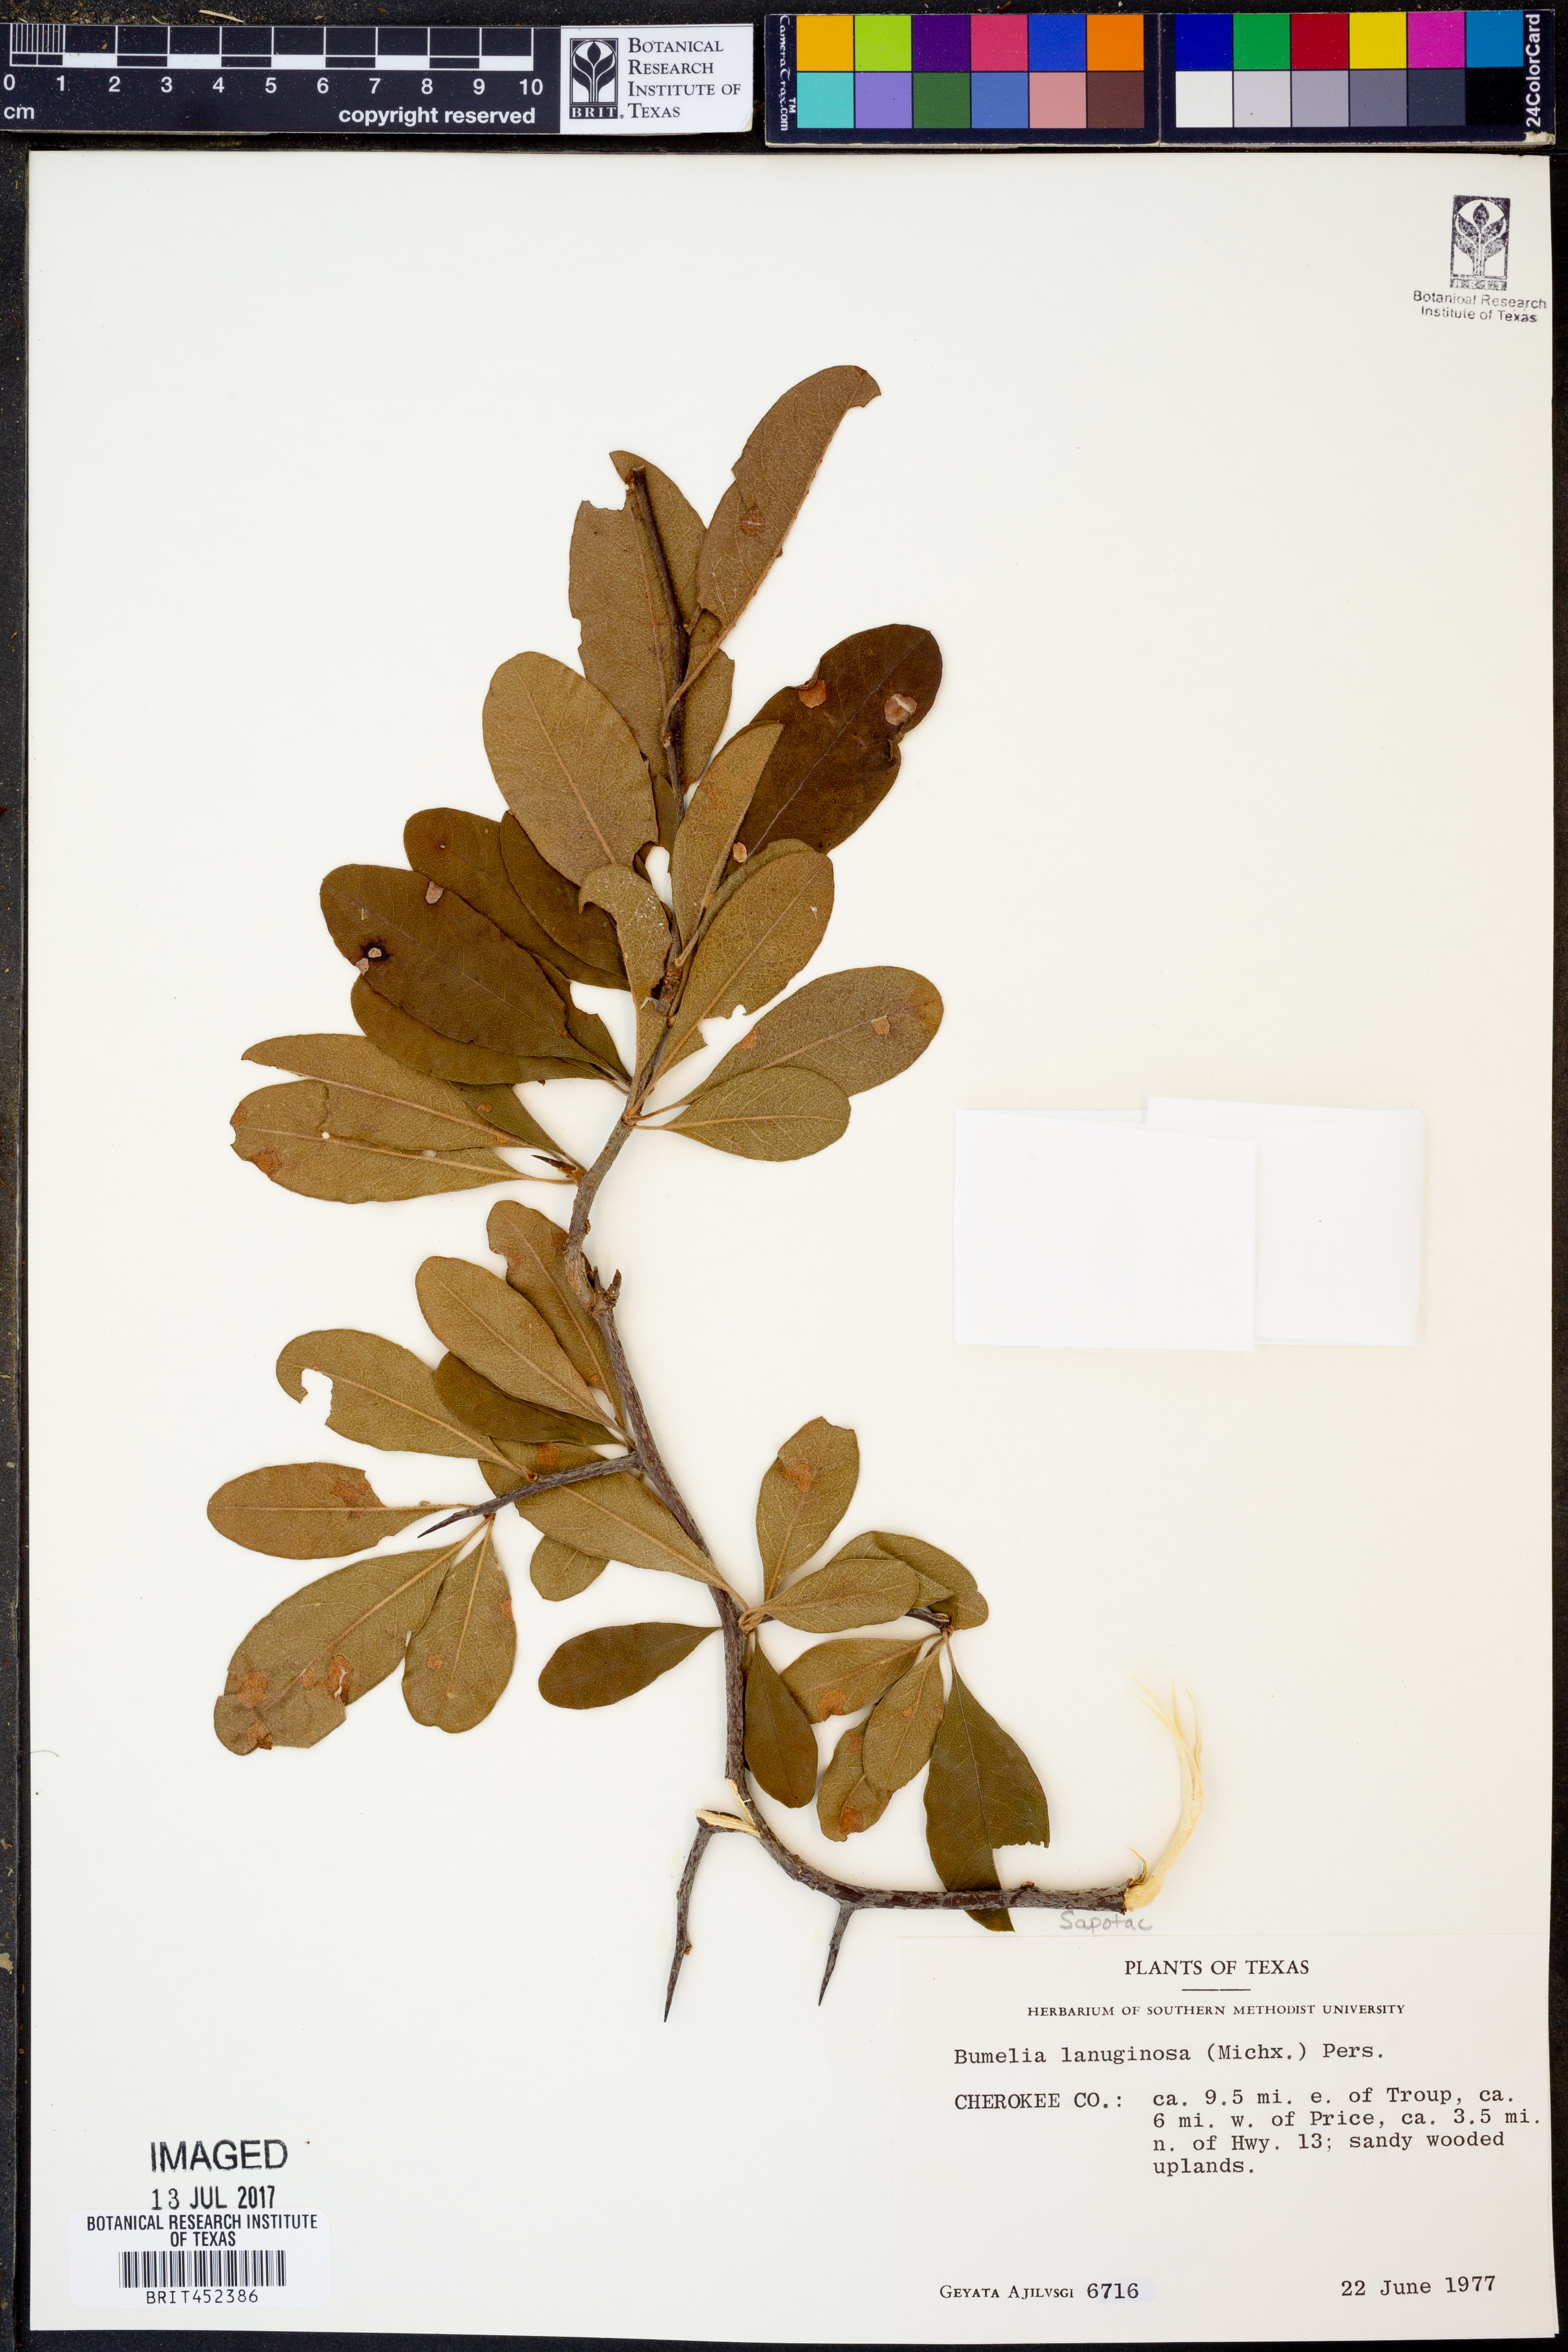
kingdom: Plantae
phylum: Tracheophyta
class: Magnoliopsida
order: Ericales
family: Sapotaceae
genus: Sideroxylon
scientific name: Sideroxylon lanuginosum
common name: Chittamwood
